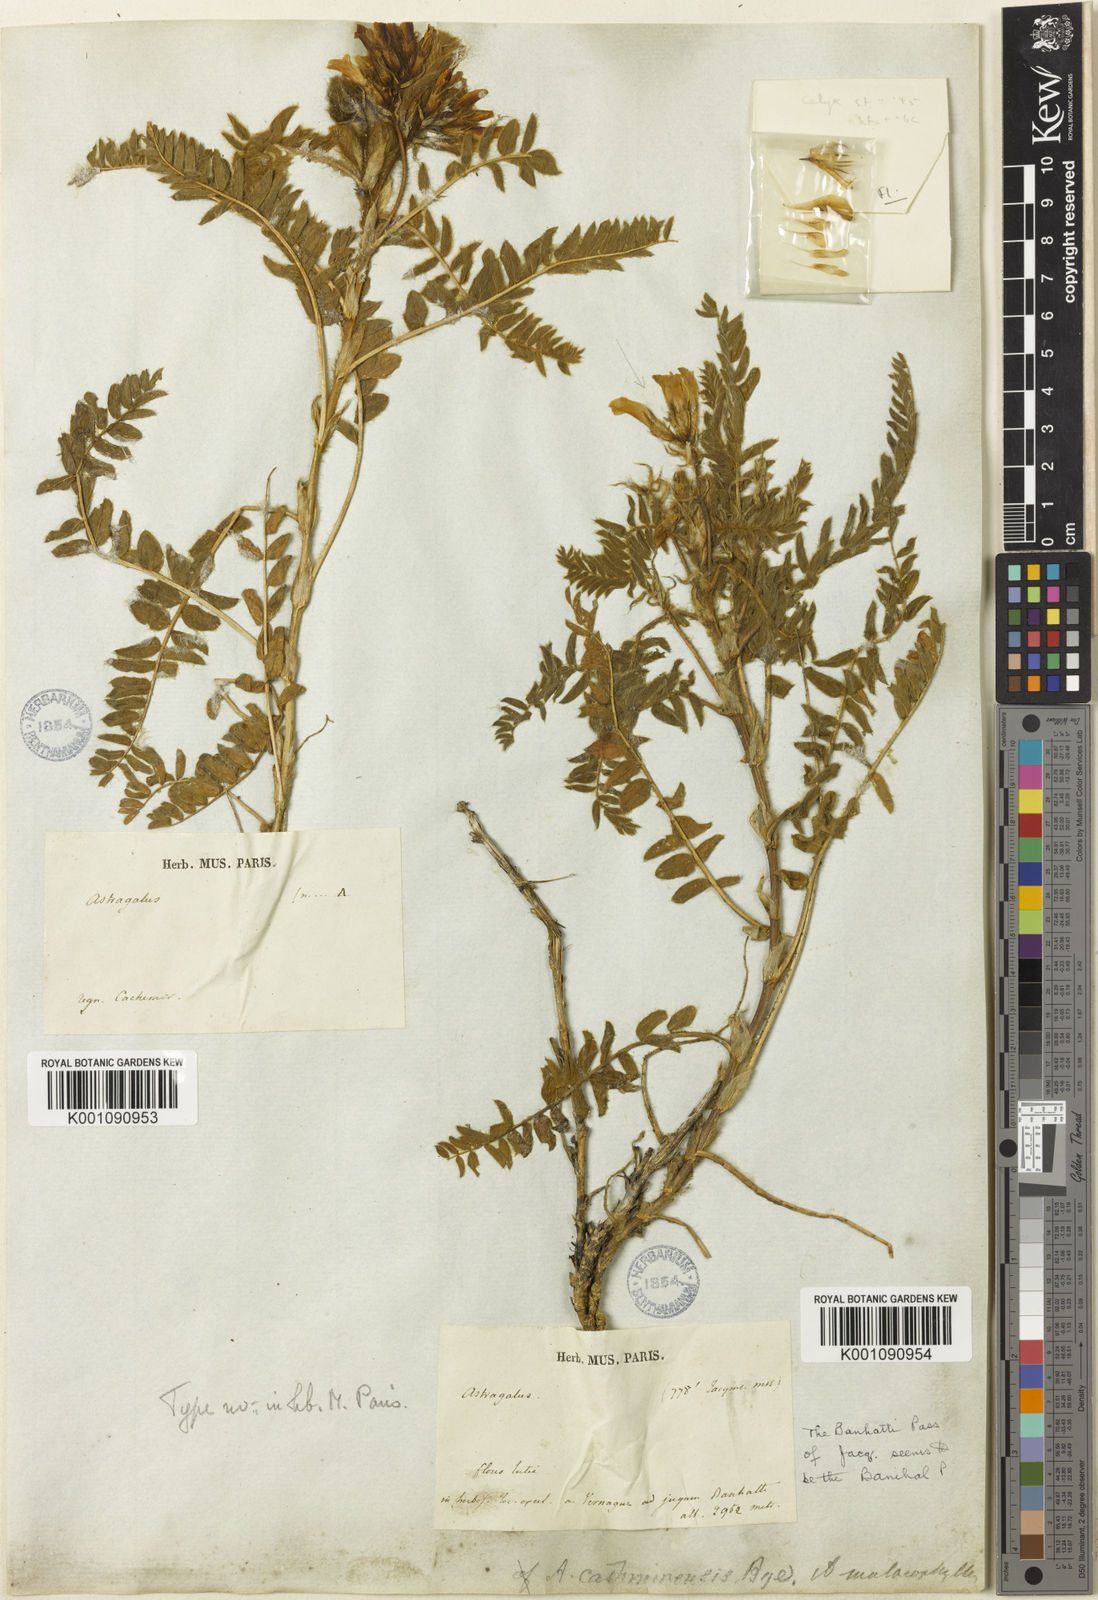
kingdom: Plantae
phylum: Tracheophyta
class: Magnoliopsida
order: Fabales
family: Fabaceae
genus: Astragalus
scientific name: Astragalus
